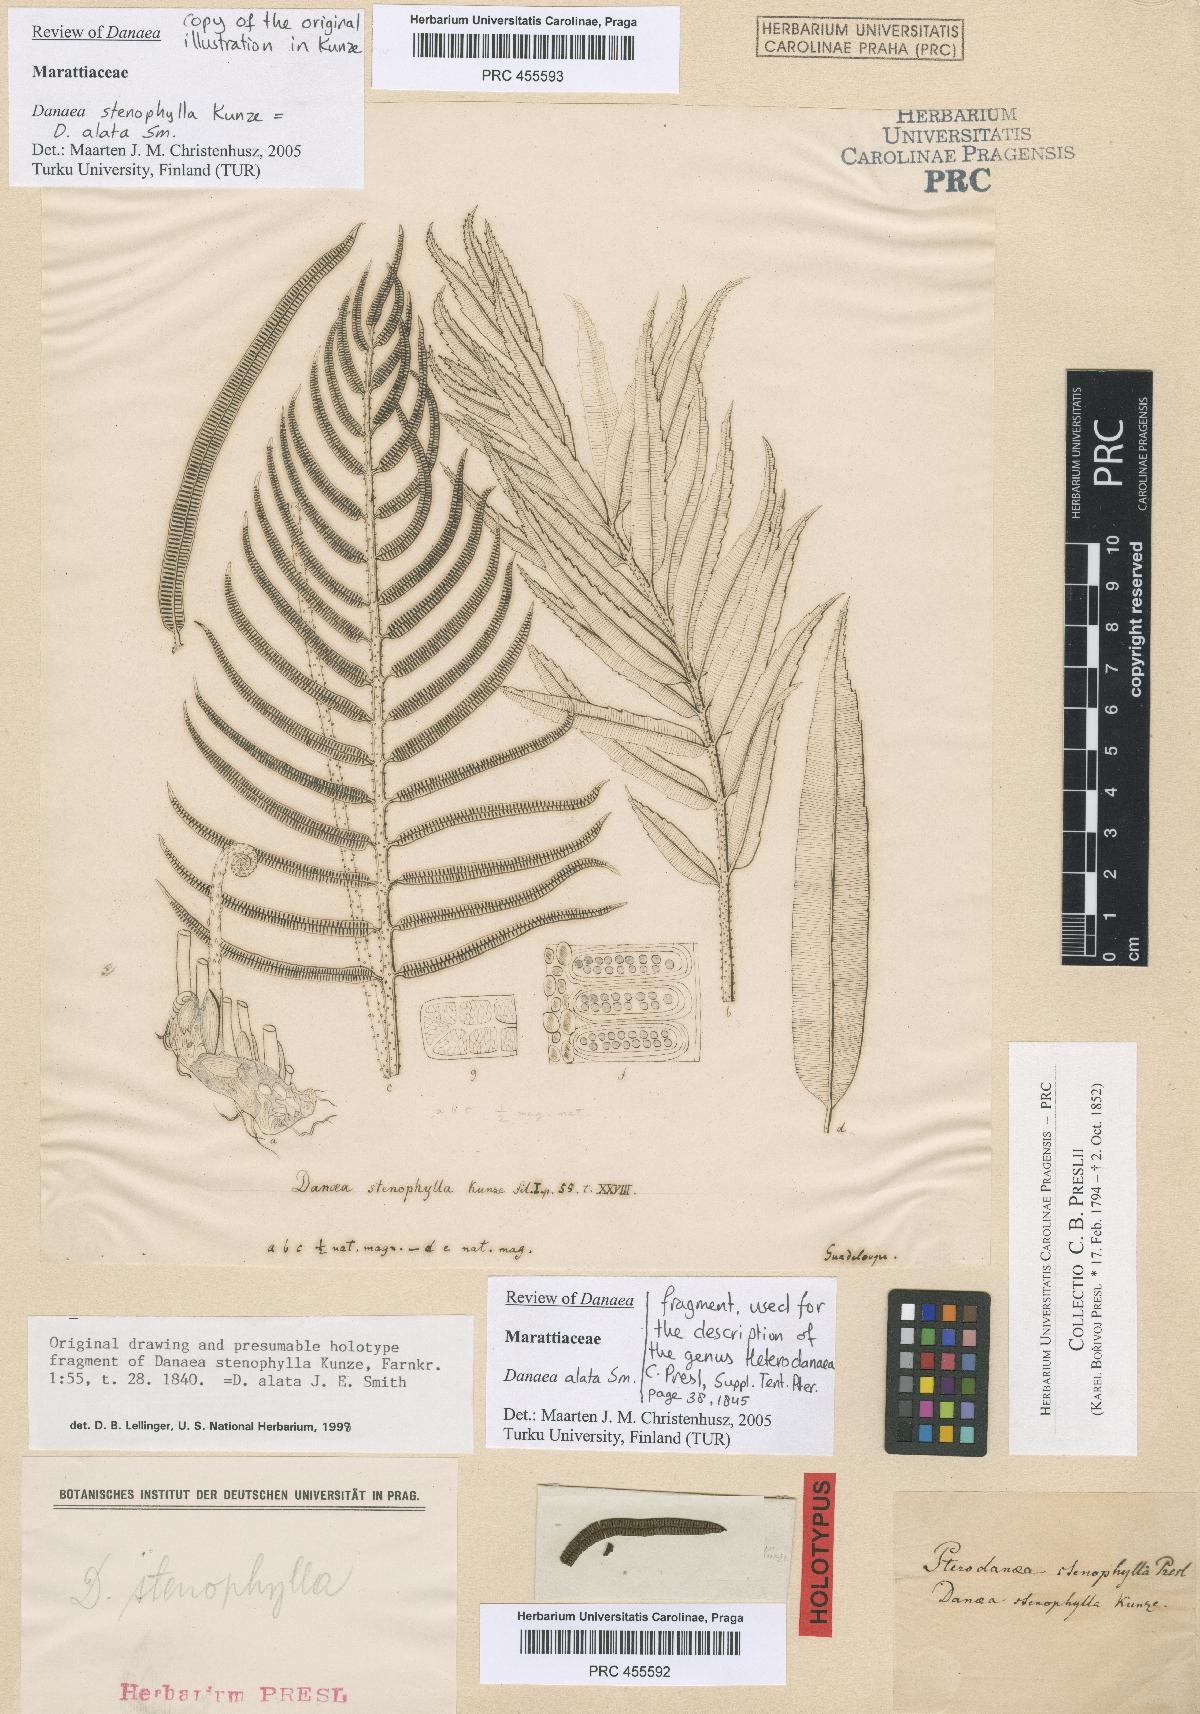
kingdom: Plantae
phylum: Tracheophyta
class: Polypodiopsida
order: Marattiales
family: Marattiaceae
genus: Danaea
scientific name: Danaea alata
